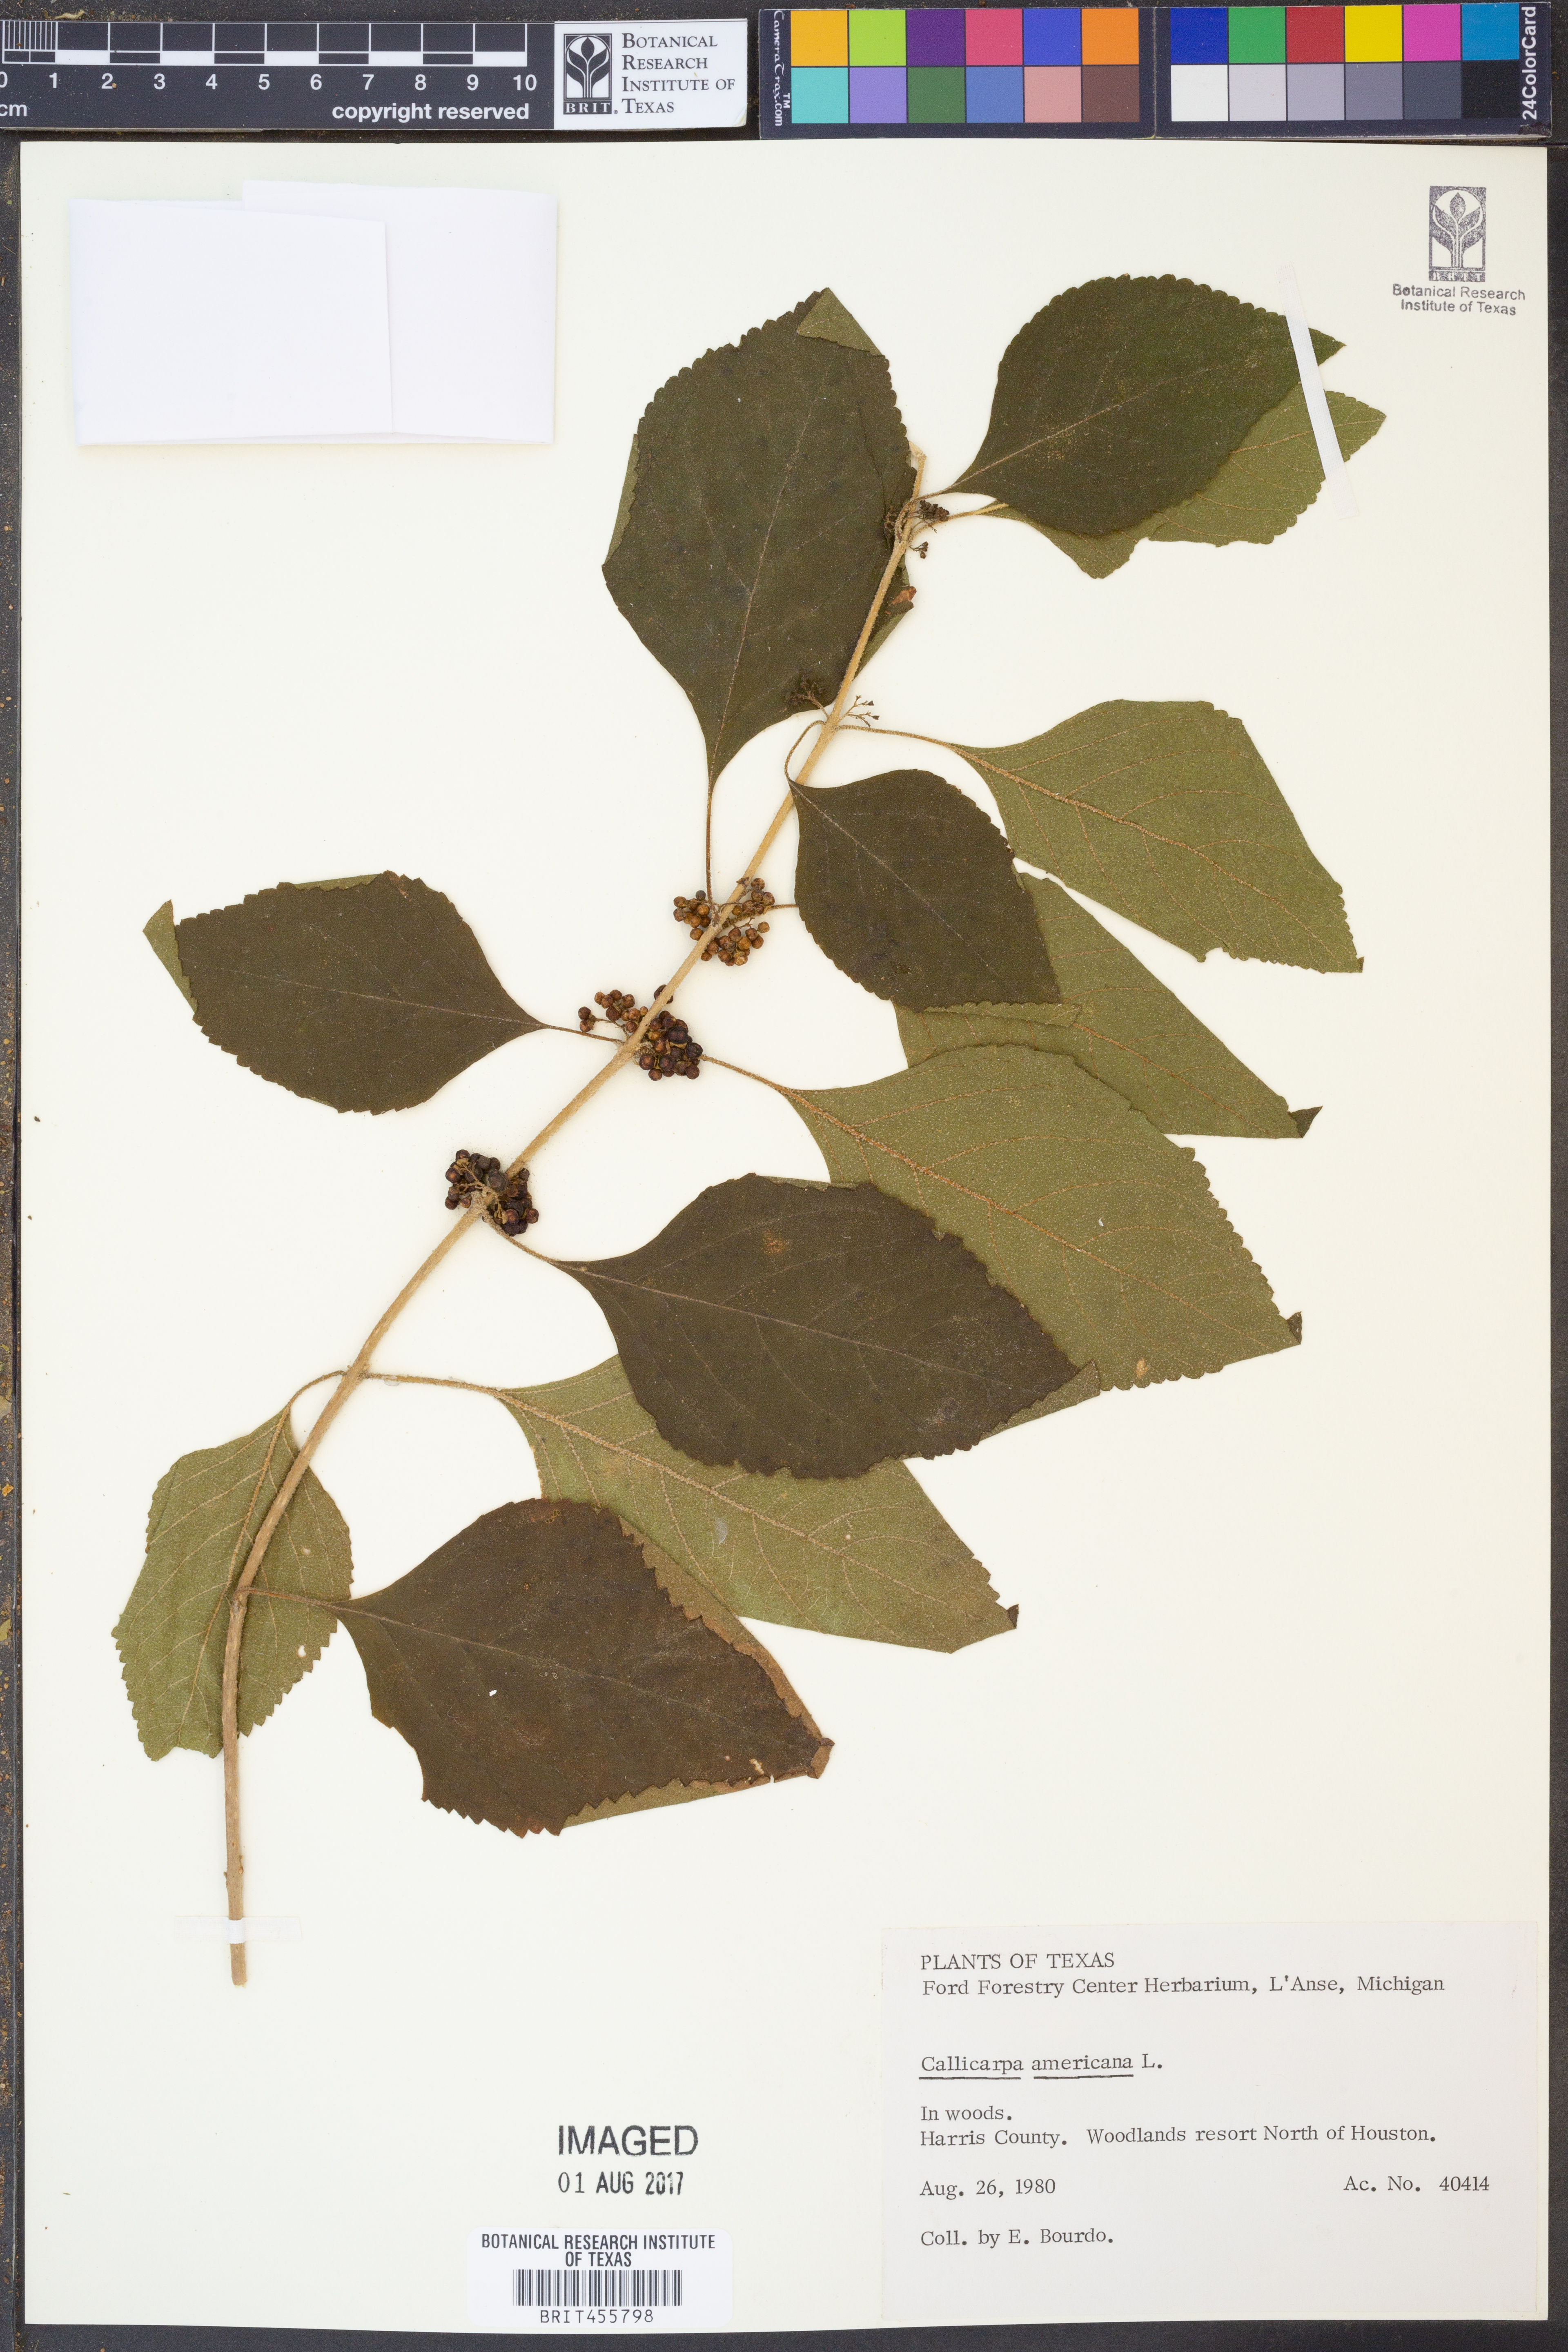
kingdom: Plantae
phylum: Tracheophyta
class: Magnoliopsida
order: Lamiales
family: Lamiaceae
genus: Callicarpa
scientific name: Callicarpa americana
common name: American beautyberry
